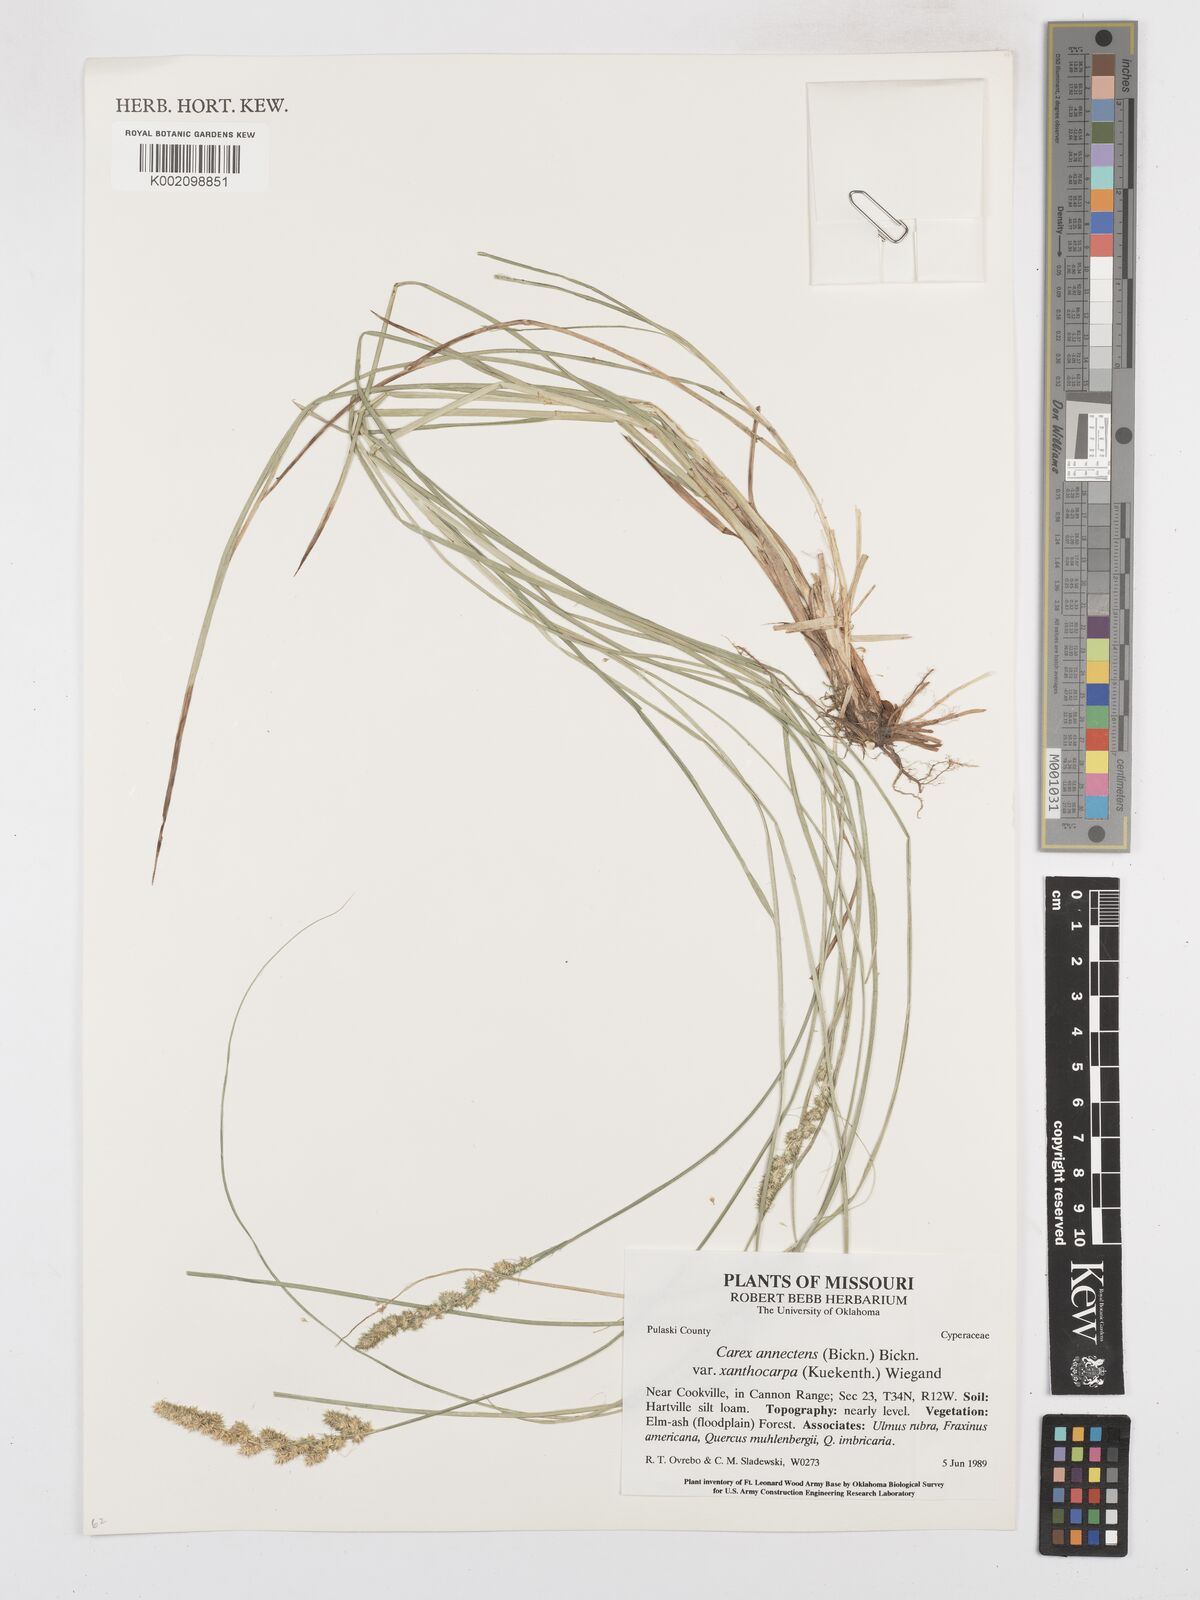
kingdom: Plantae
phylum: Tracheophyta
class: Liliopsida
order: Poales
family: Cyperaceae
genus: Carex
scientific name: Carex annectens
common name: Large fox sedge
